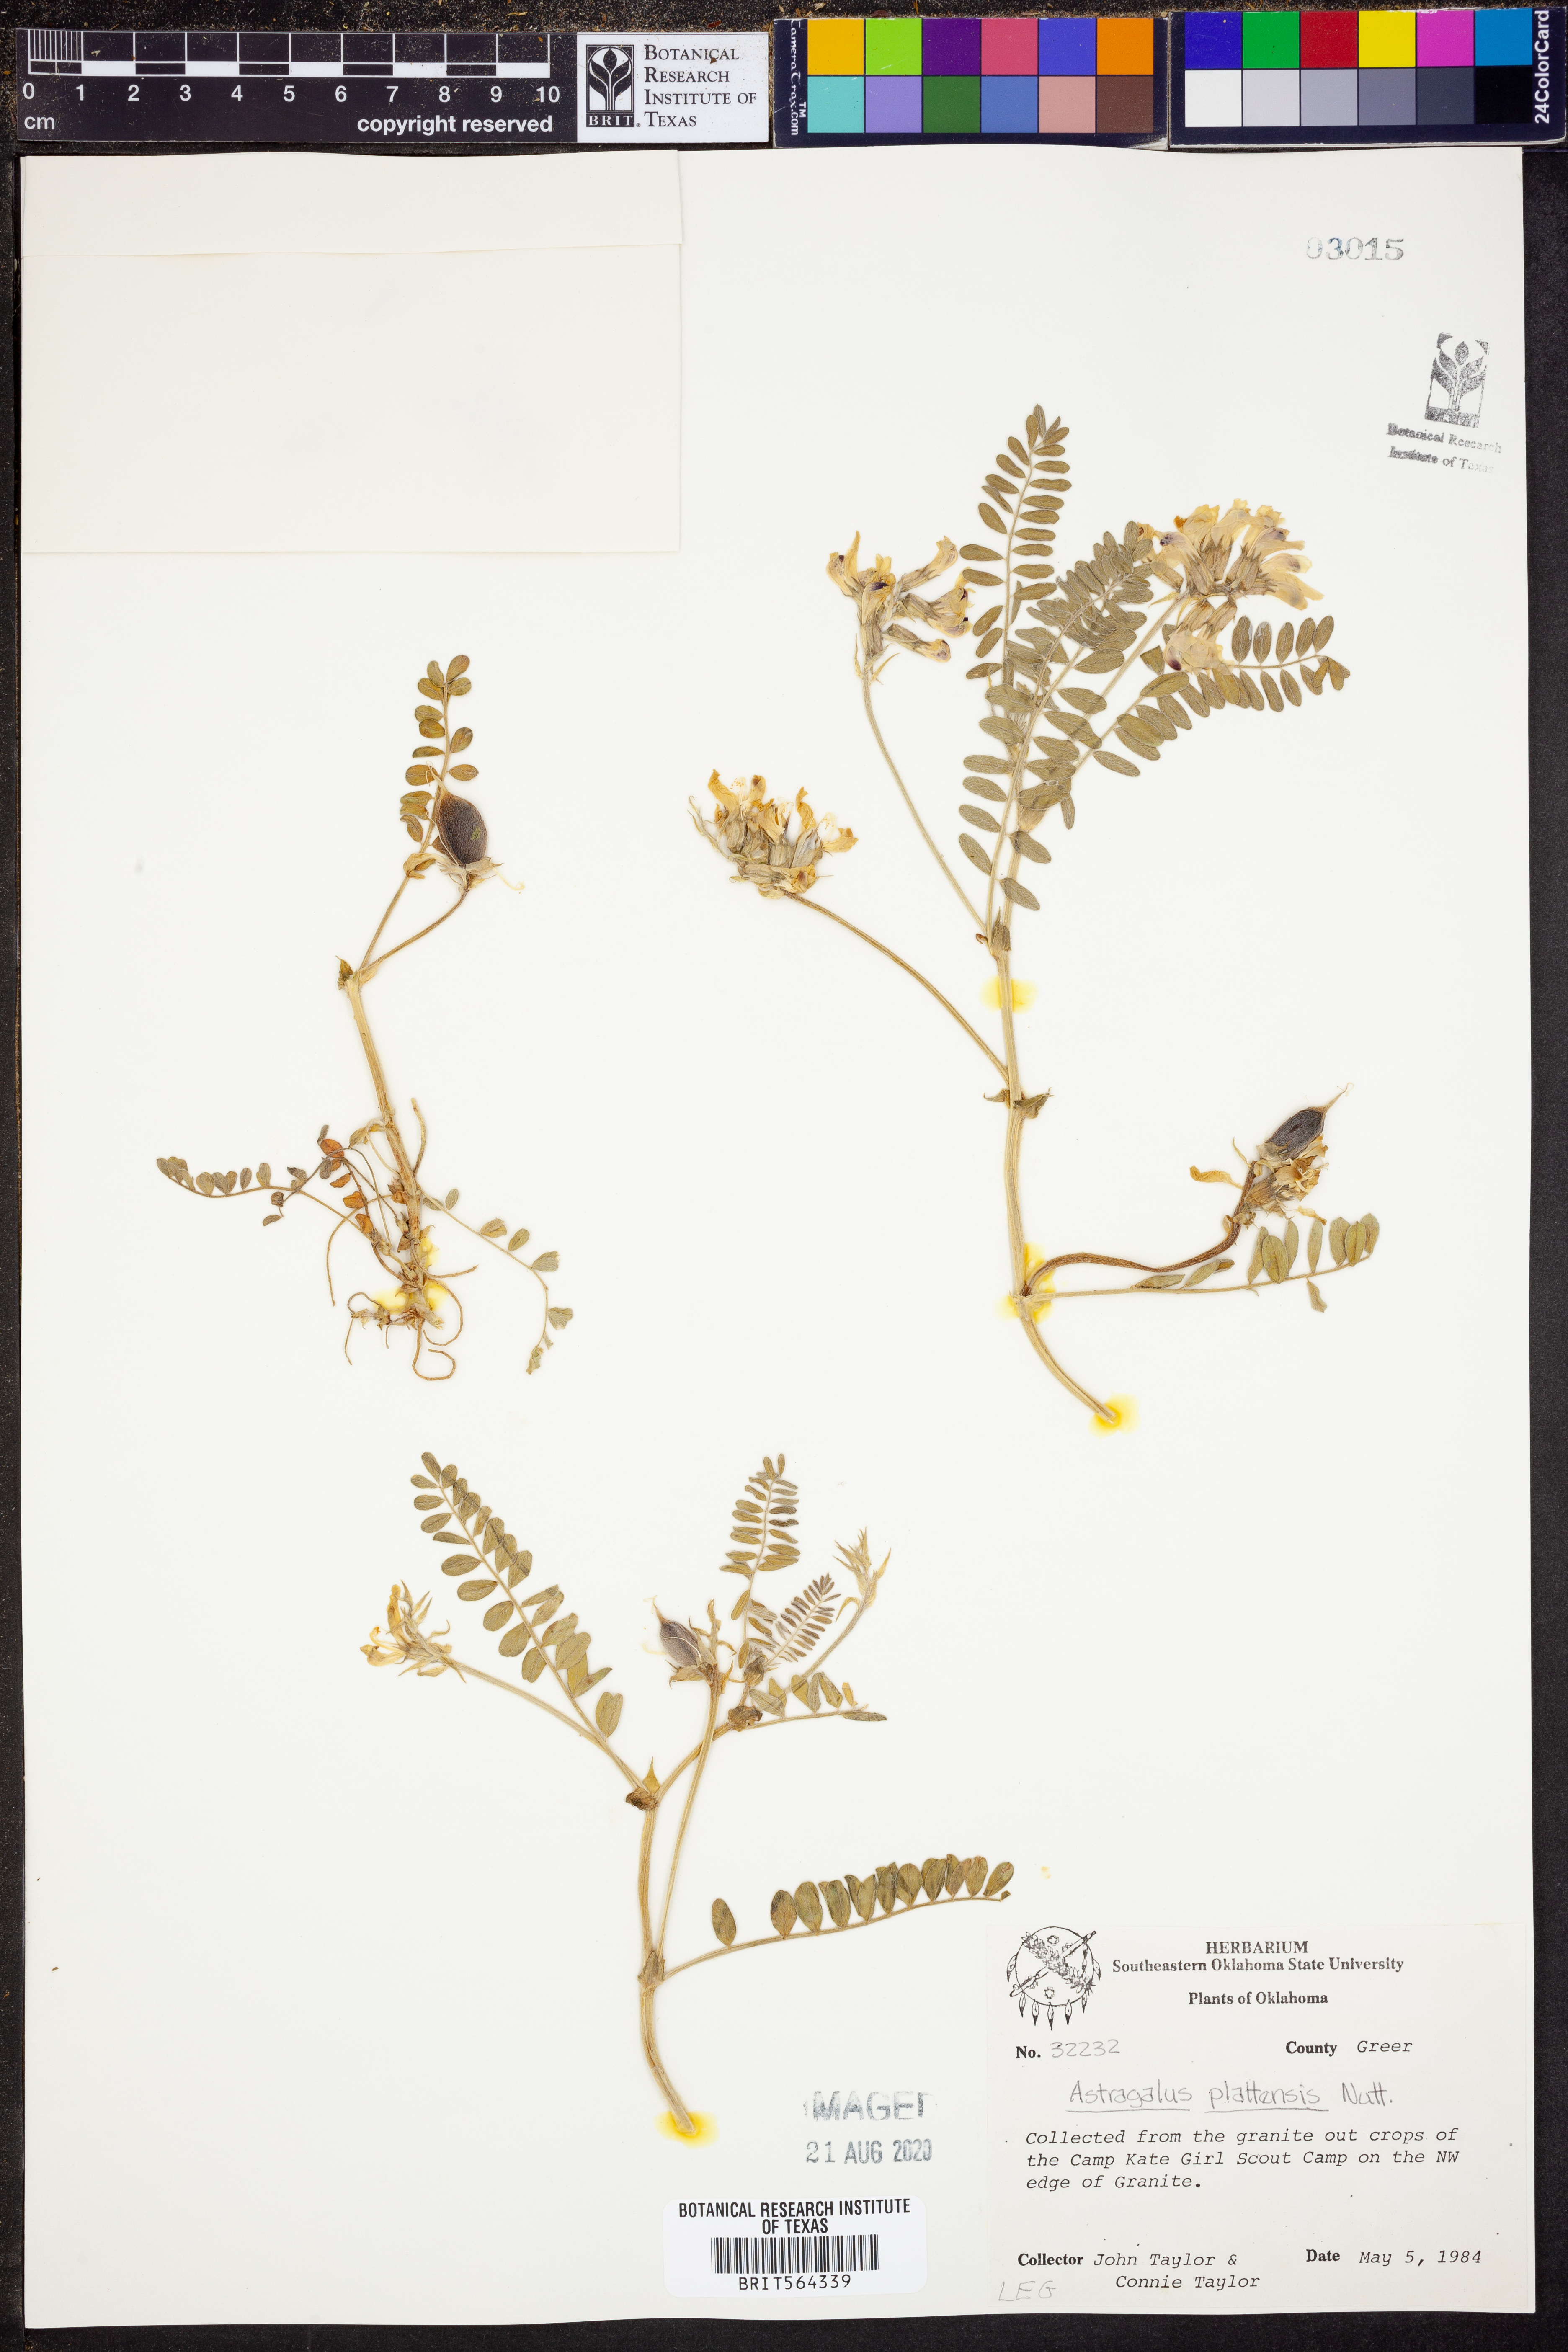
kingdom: Plantae
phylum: Tracheophyta
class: Magnoliopsida
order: Fabales
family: Fabaceae
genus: Astragalus
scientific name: Astragalus plattensis
